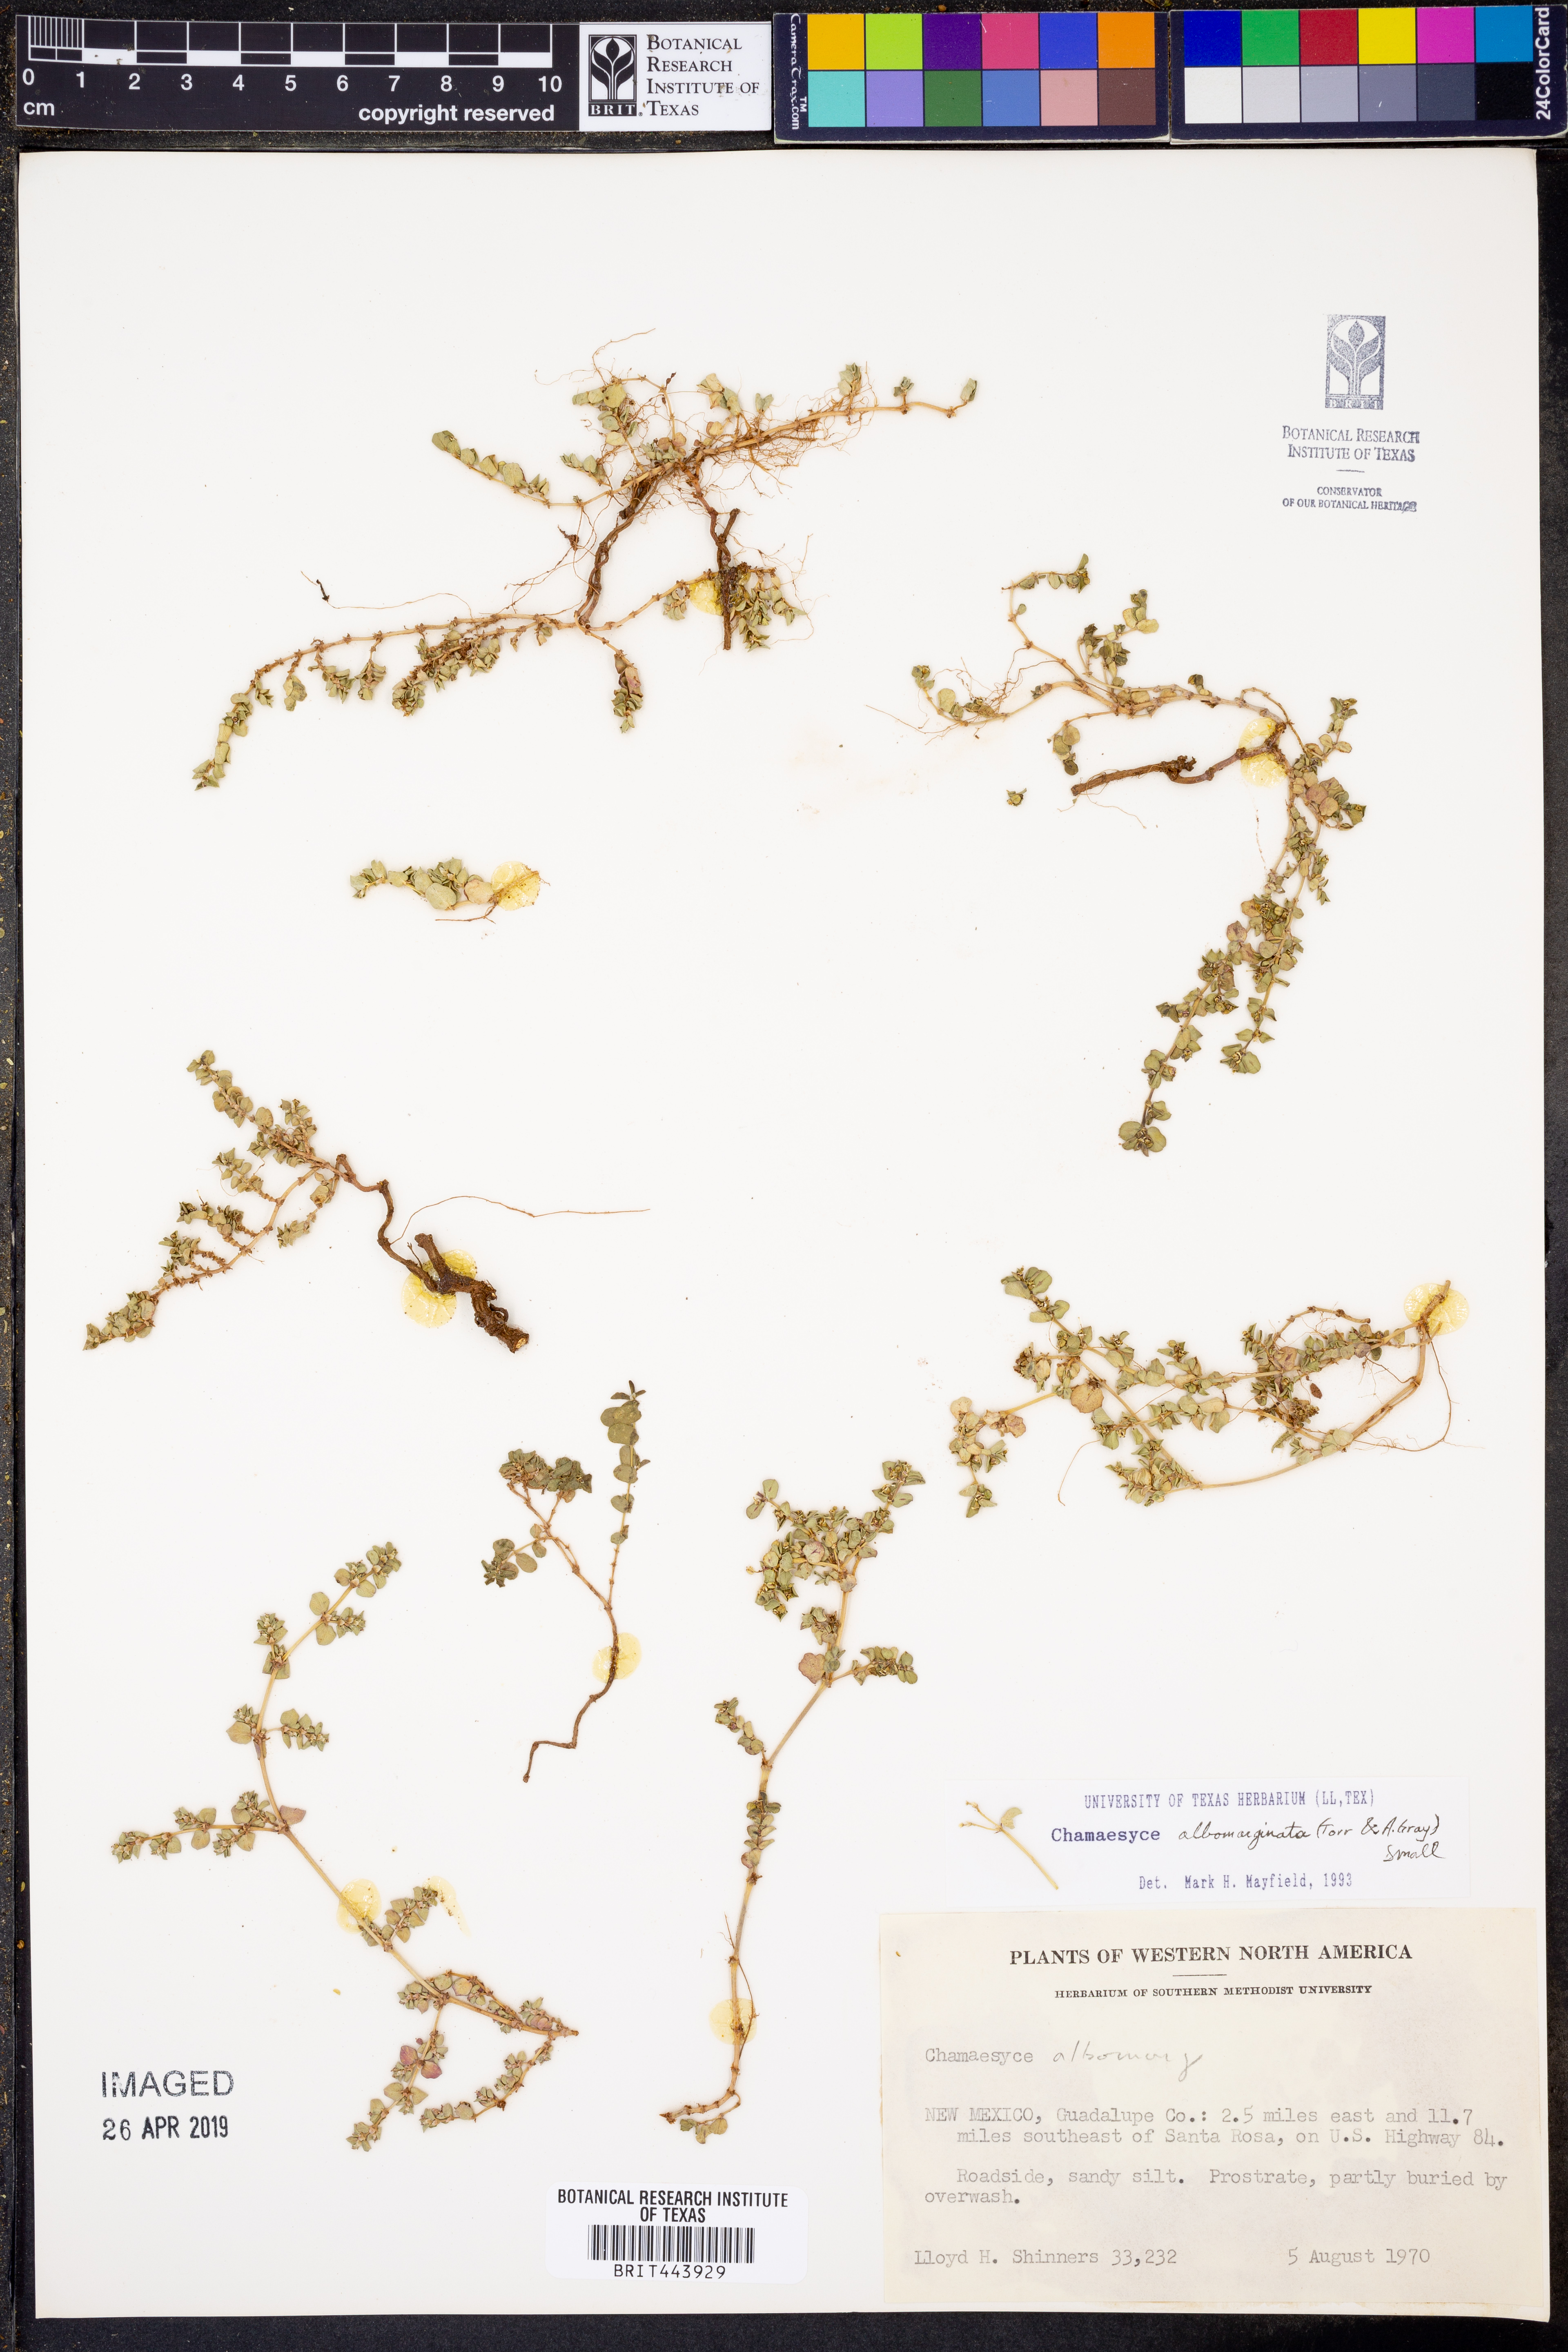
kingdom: Plantae
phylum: Tracheophyta
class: Magnoliopsida
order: Malpighiales
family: Euphorbiaceae
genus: Euphorbia
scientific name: Euphorbia albomarginata
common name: Whitemargin sandmat
